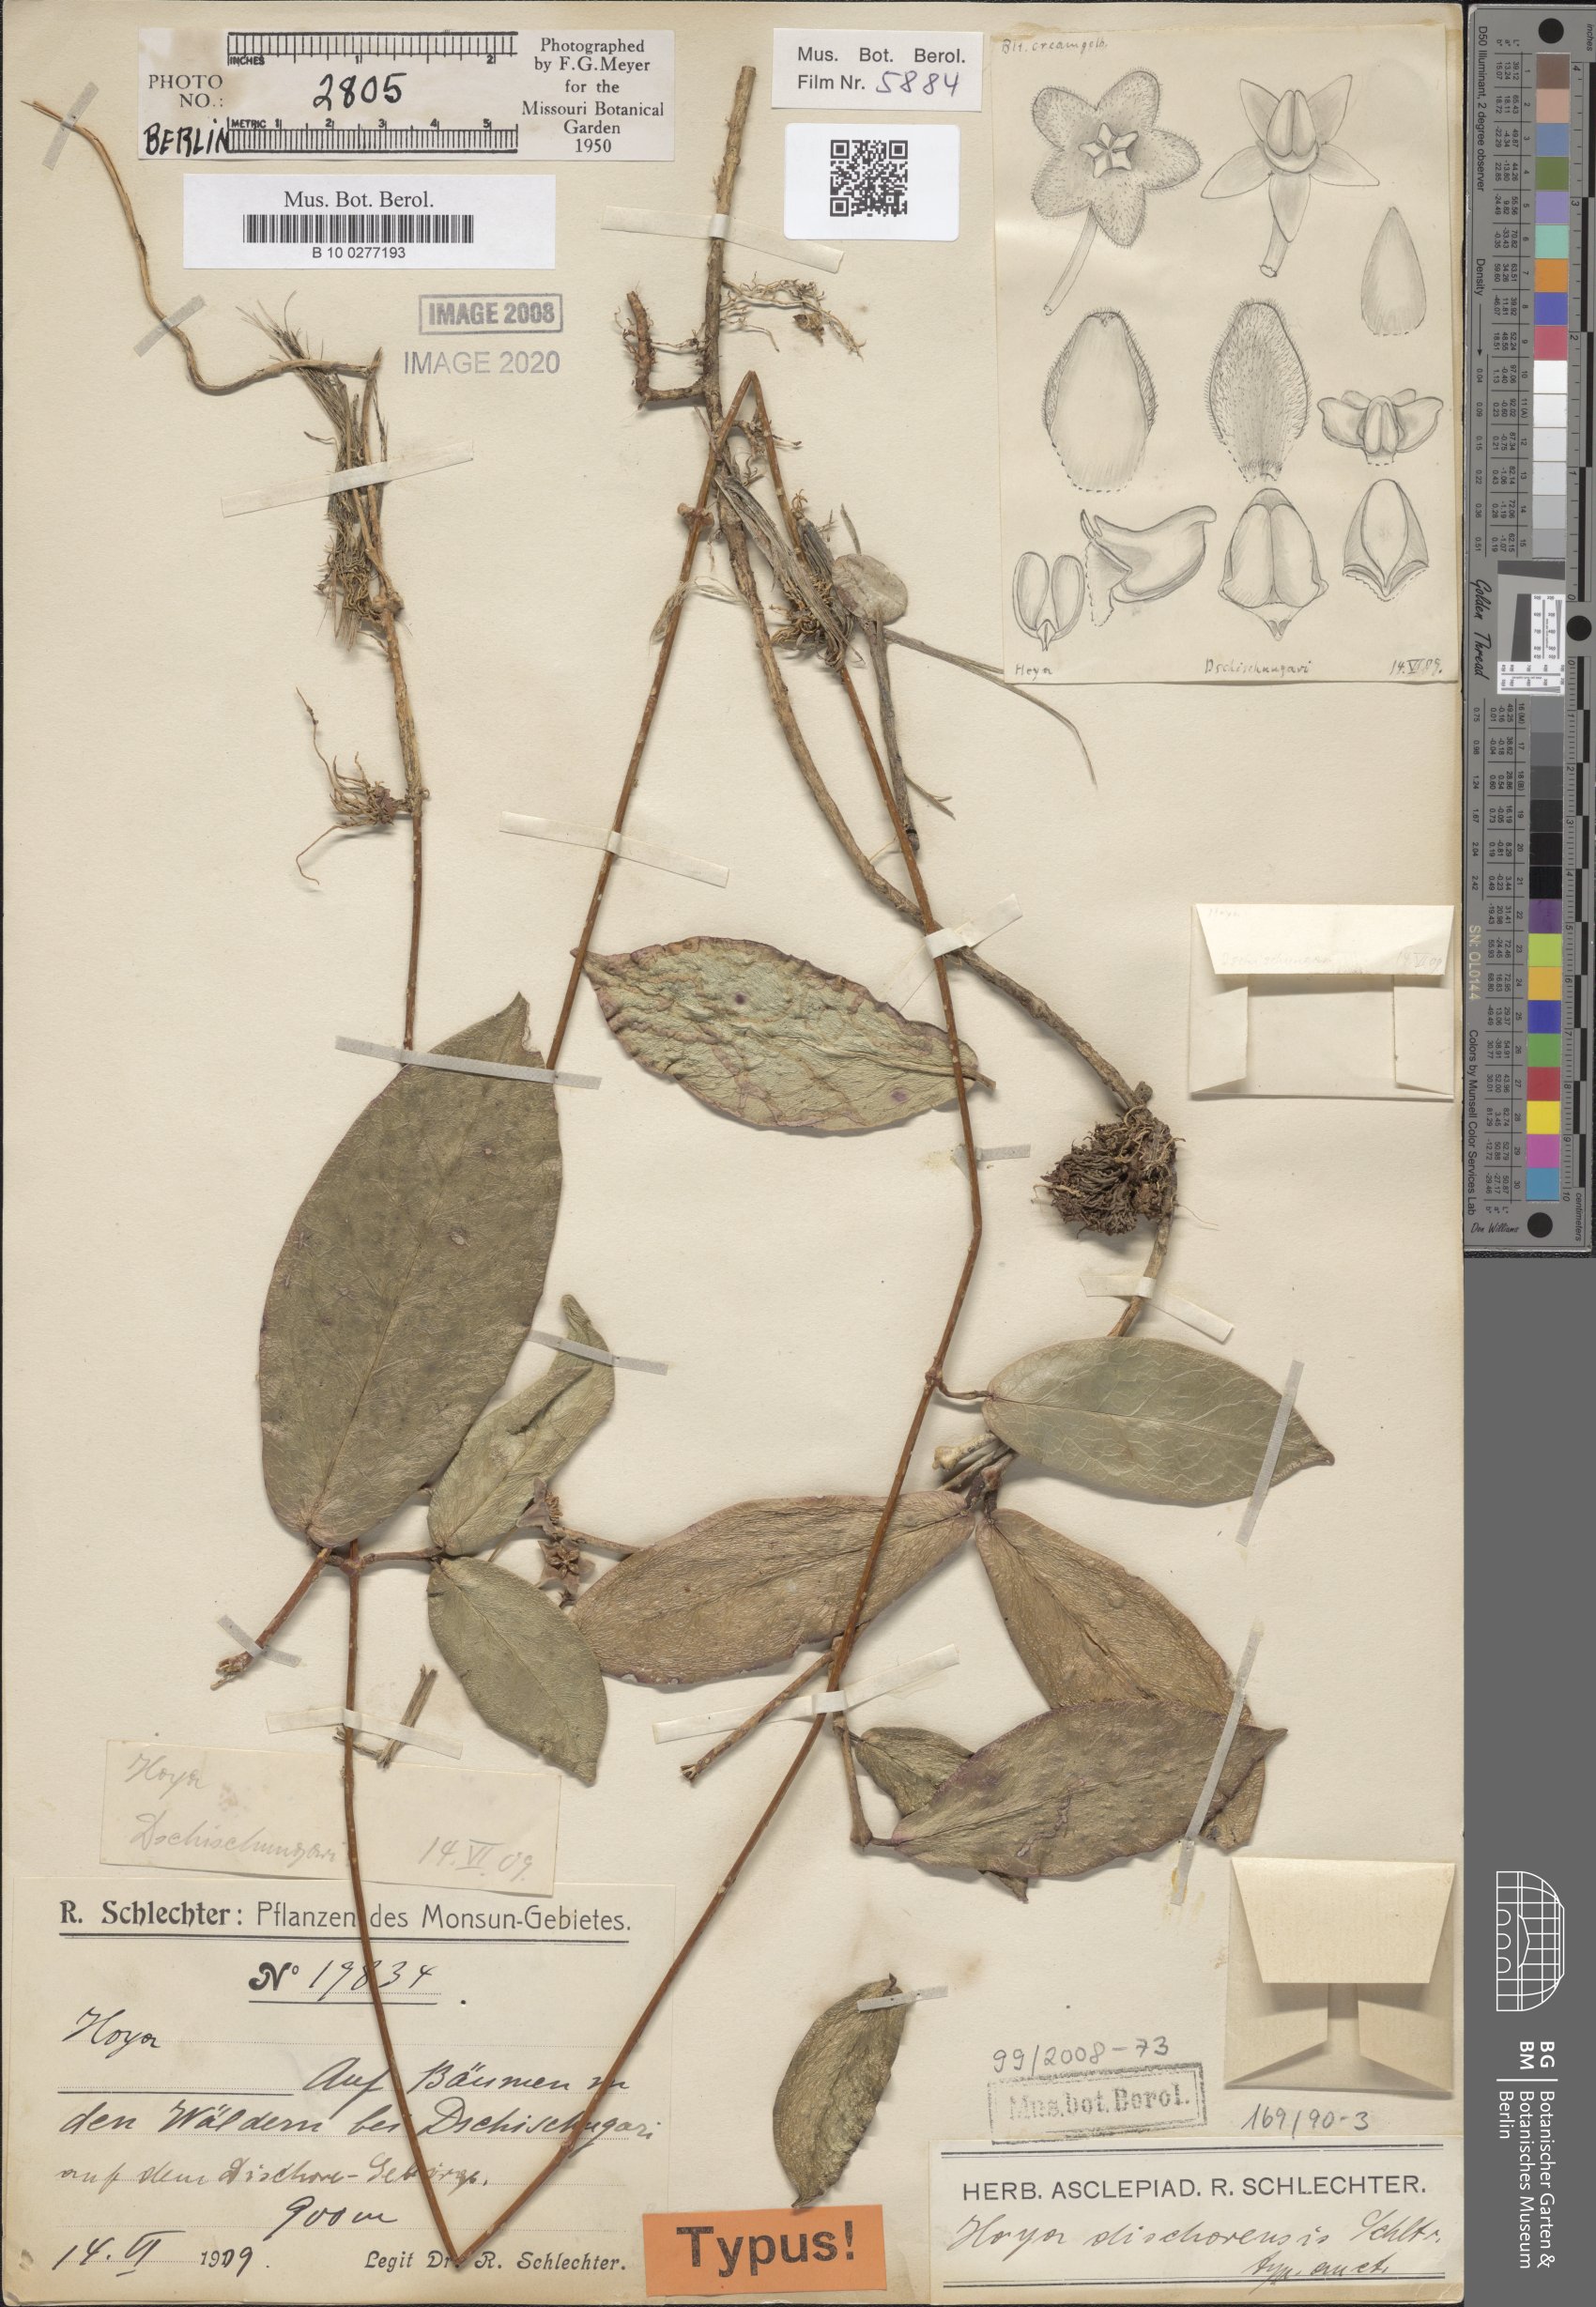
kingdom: Plantae
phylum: Tracheophyta
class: Magnoliopsida
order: Gentianales
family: Apocynaceae
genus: Hoya
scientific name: Hoya ischnopus
